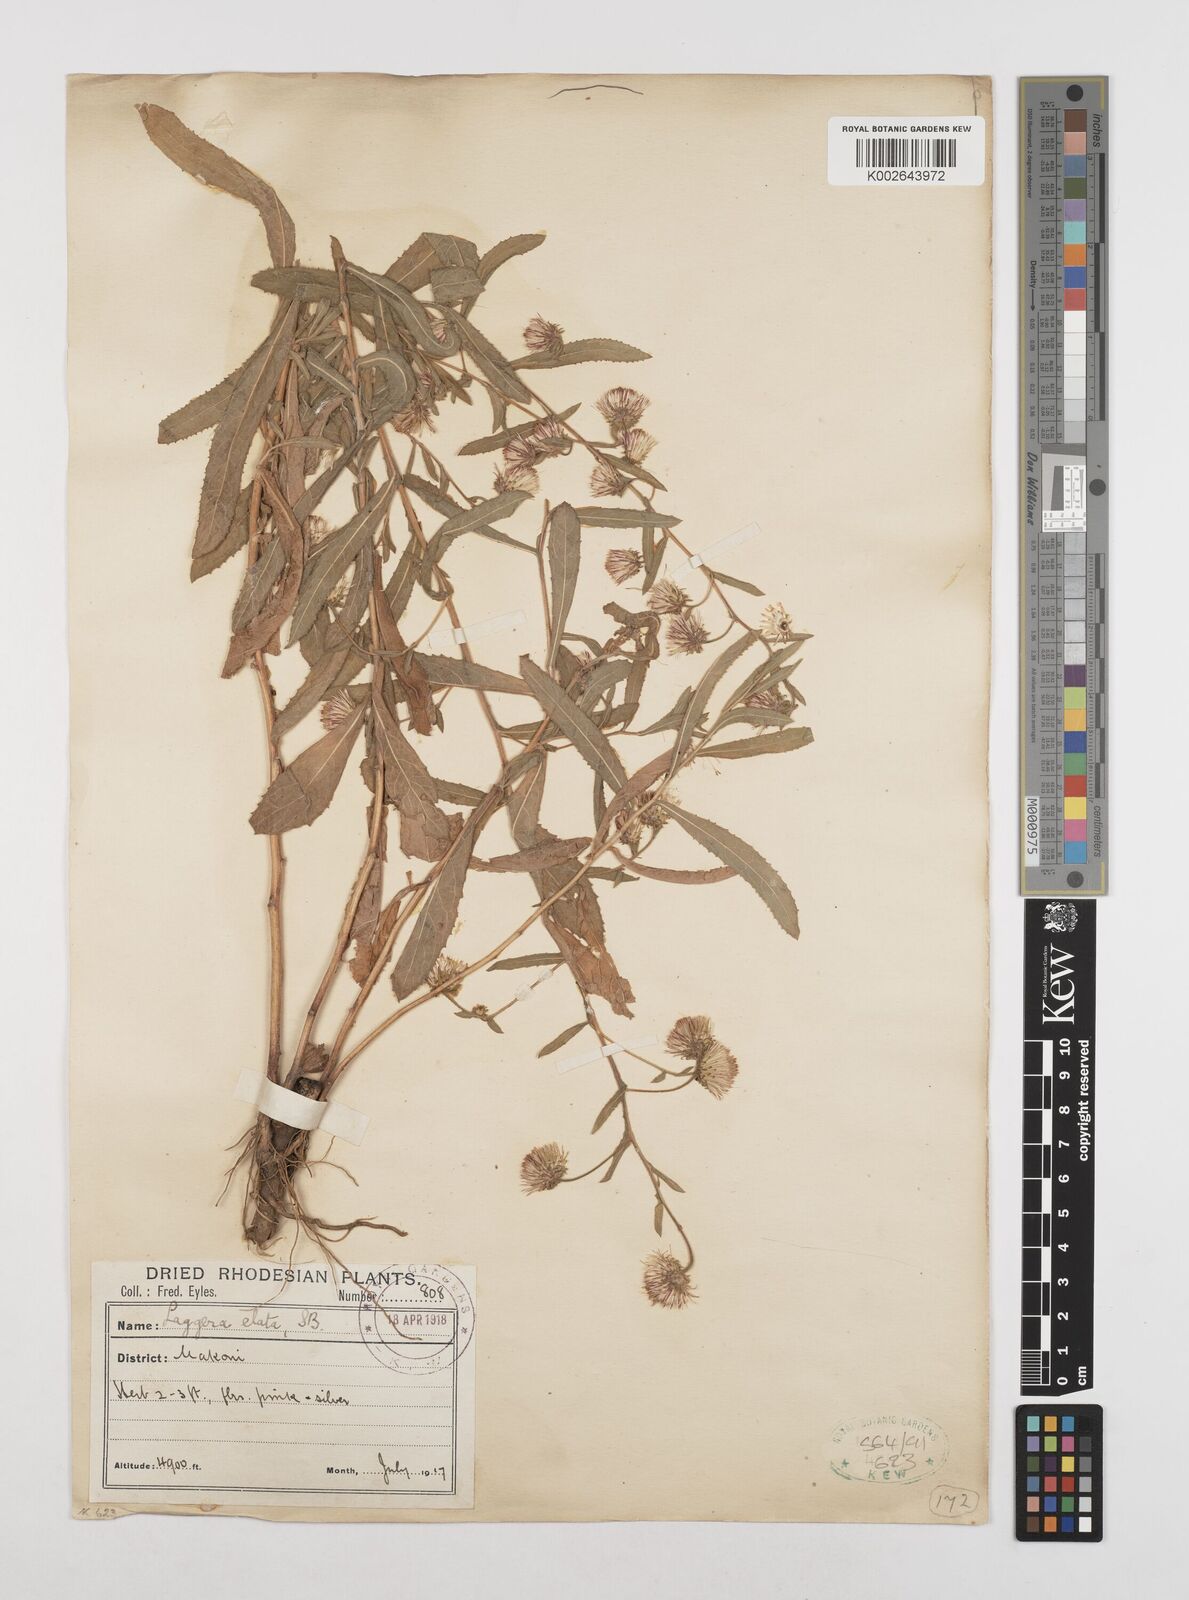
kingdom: Plantae
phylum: Tracheophyta
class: Magnoliopsida
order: Asterales
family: Asteraceae
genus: Laggera
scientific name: Laggera alata
